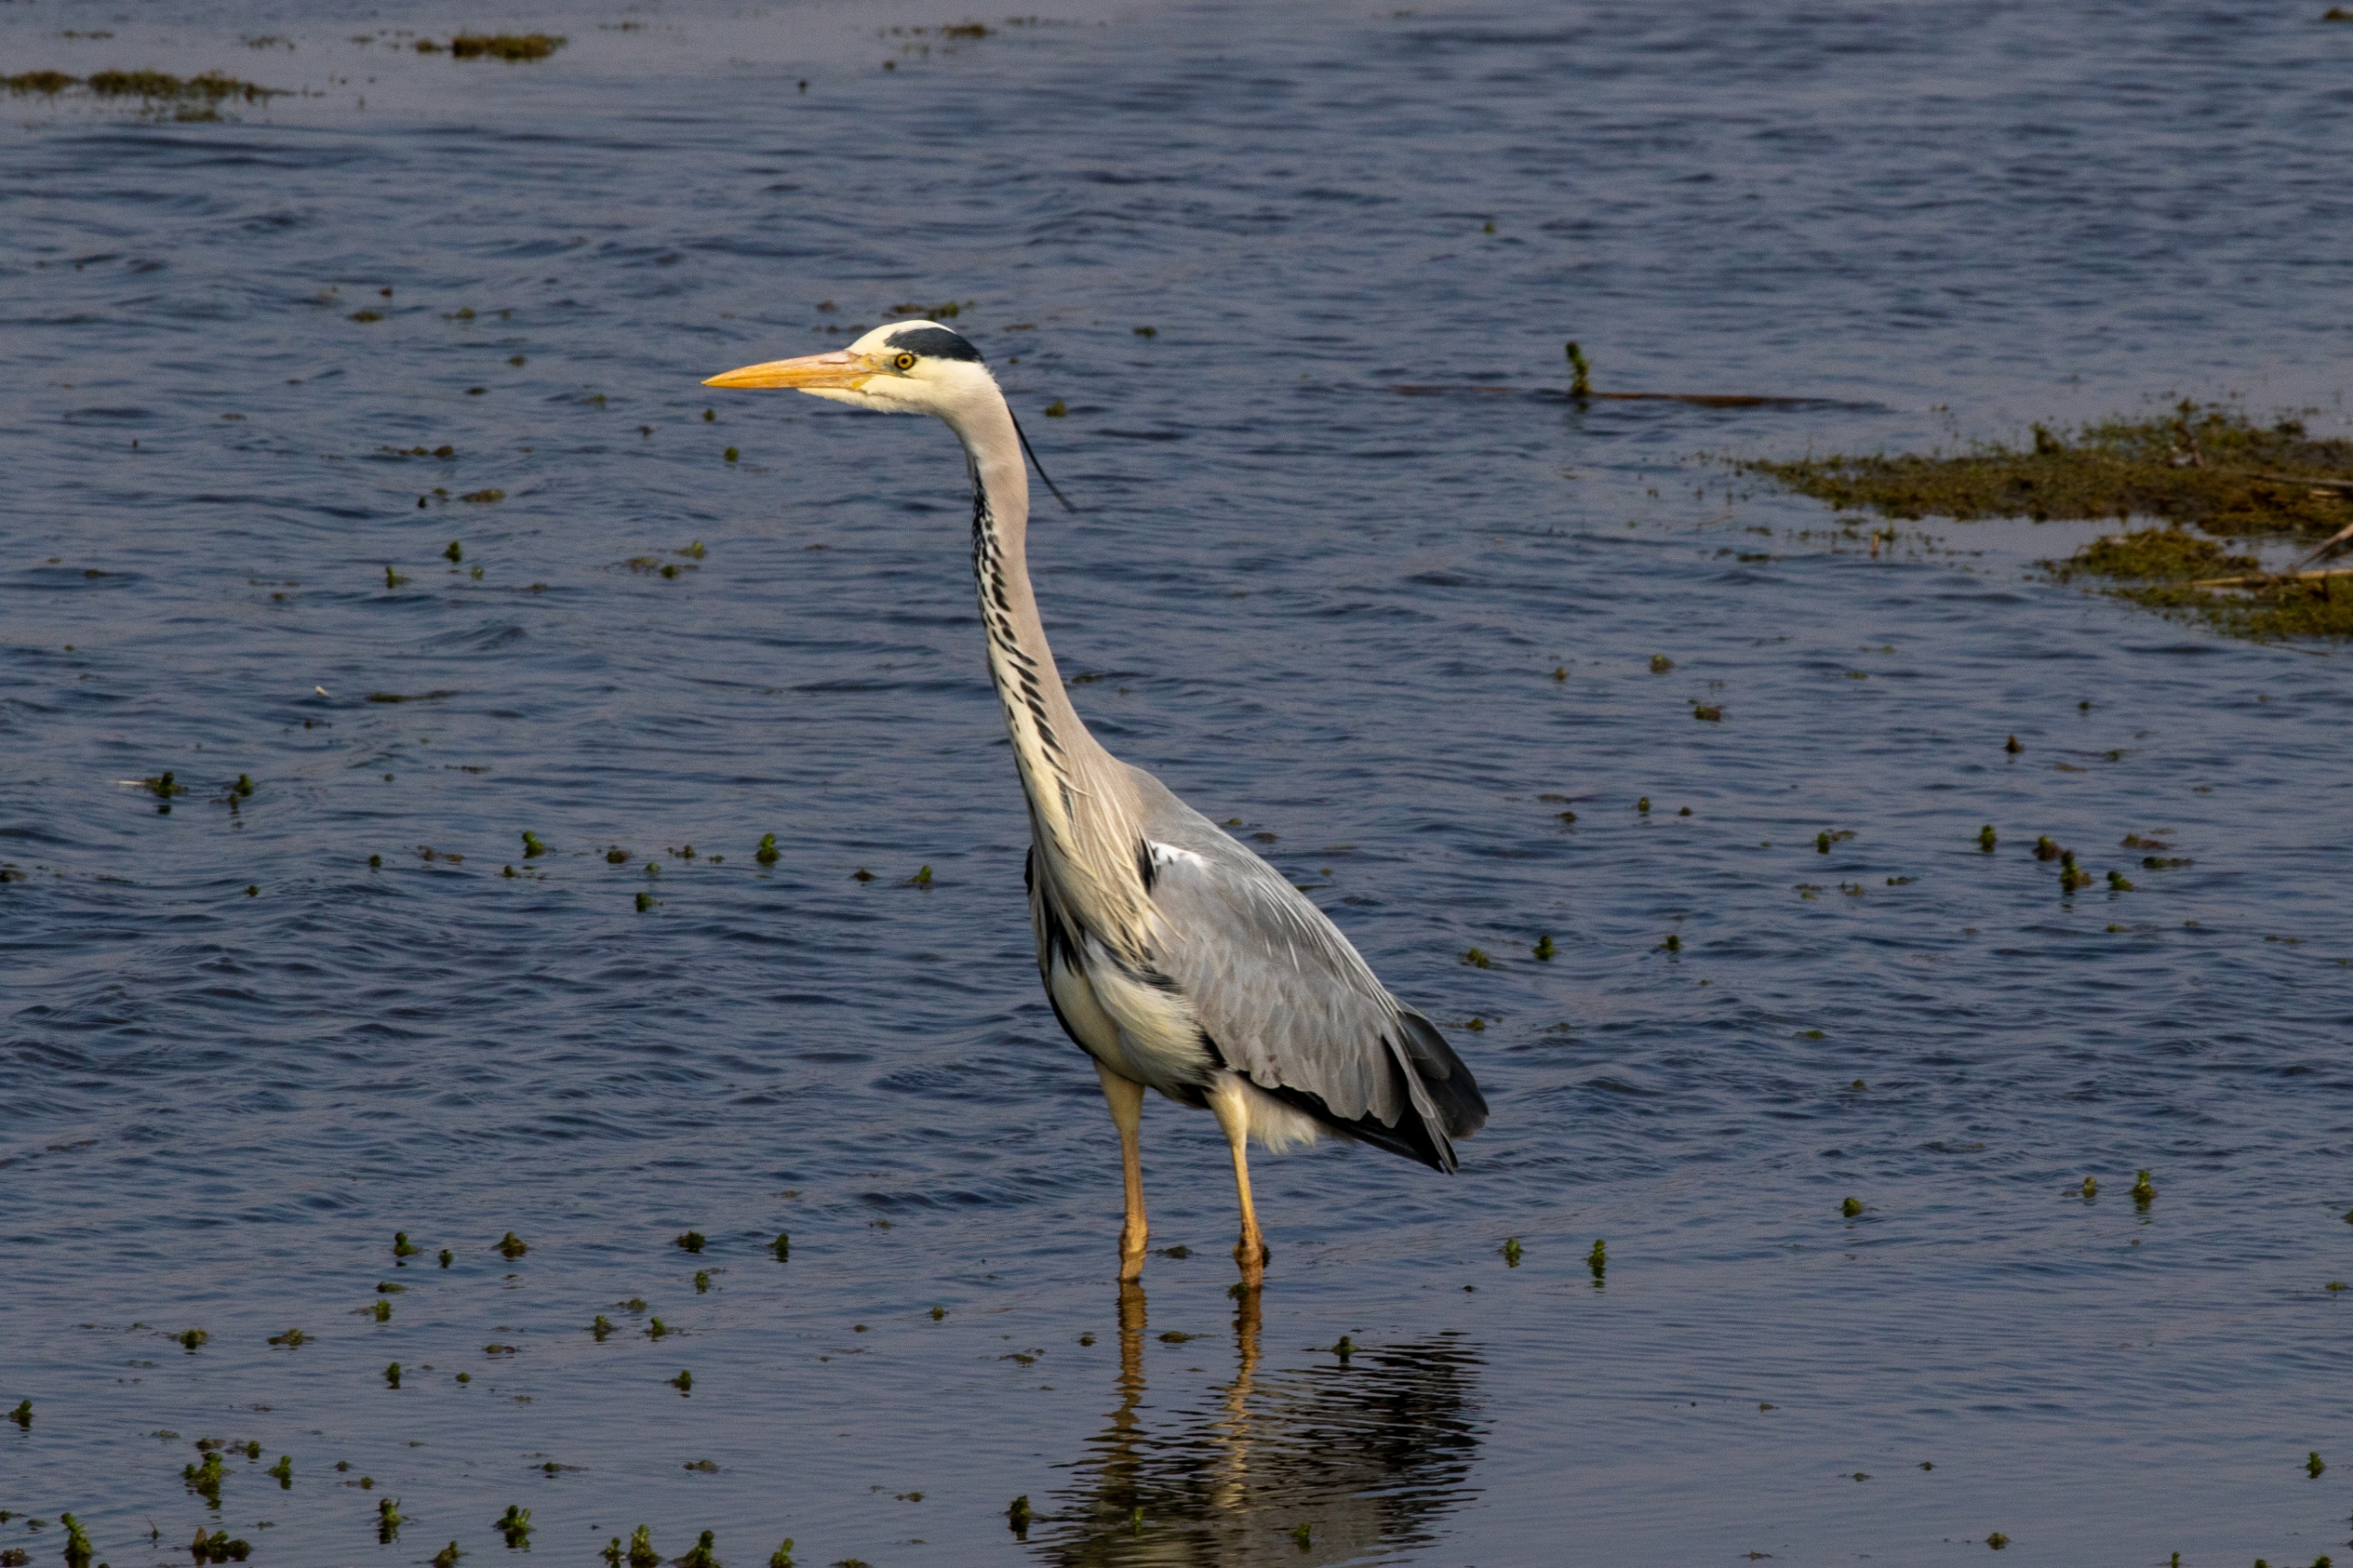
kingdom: Animalia
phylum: Chordata
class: Aves
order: Pelecaniformes
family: Ardeidae
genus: Ardea
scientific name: Ardea cinerea
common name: Fiskehejre
